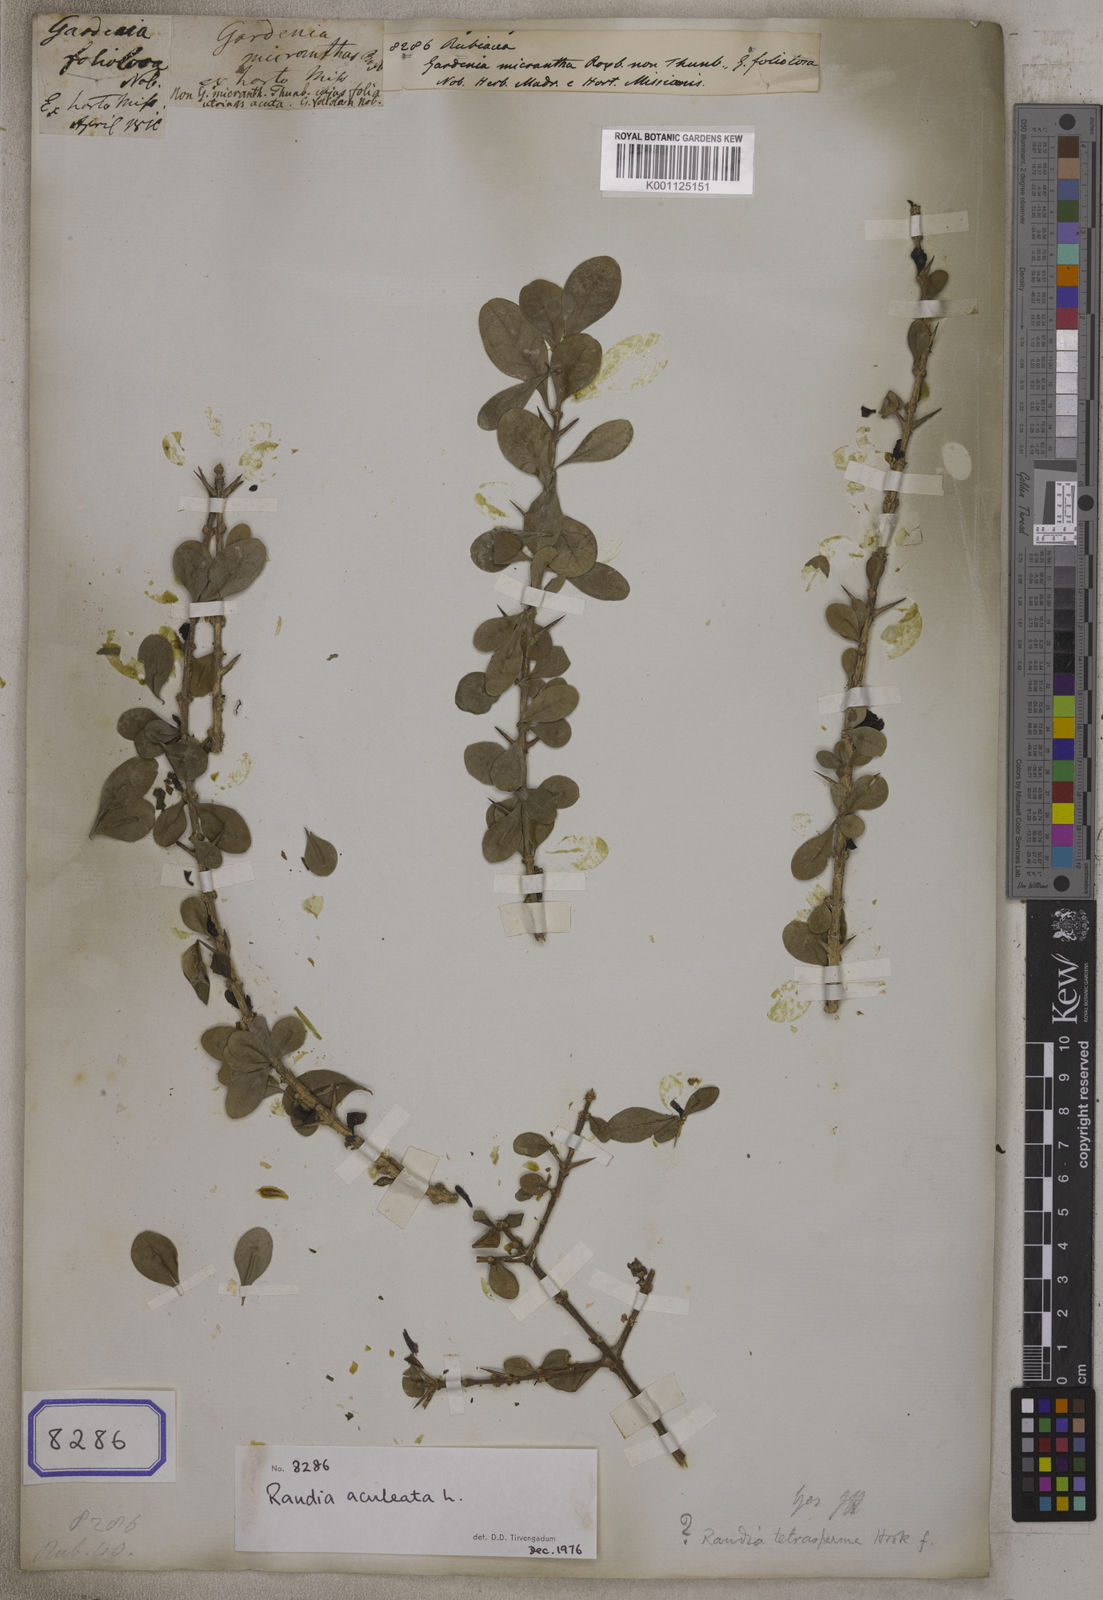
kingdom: Plantae
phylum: Tracheophyta
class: Magnoliopsida
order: Gentianales
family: Rubiaceae
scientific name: Rubiaceae
